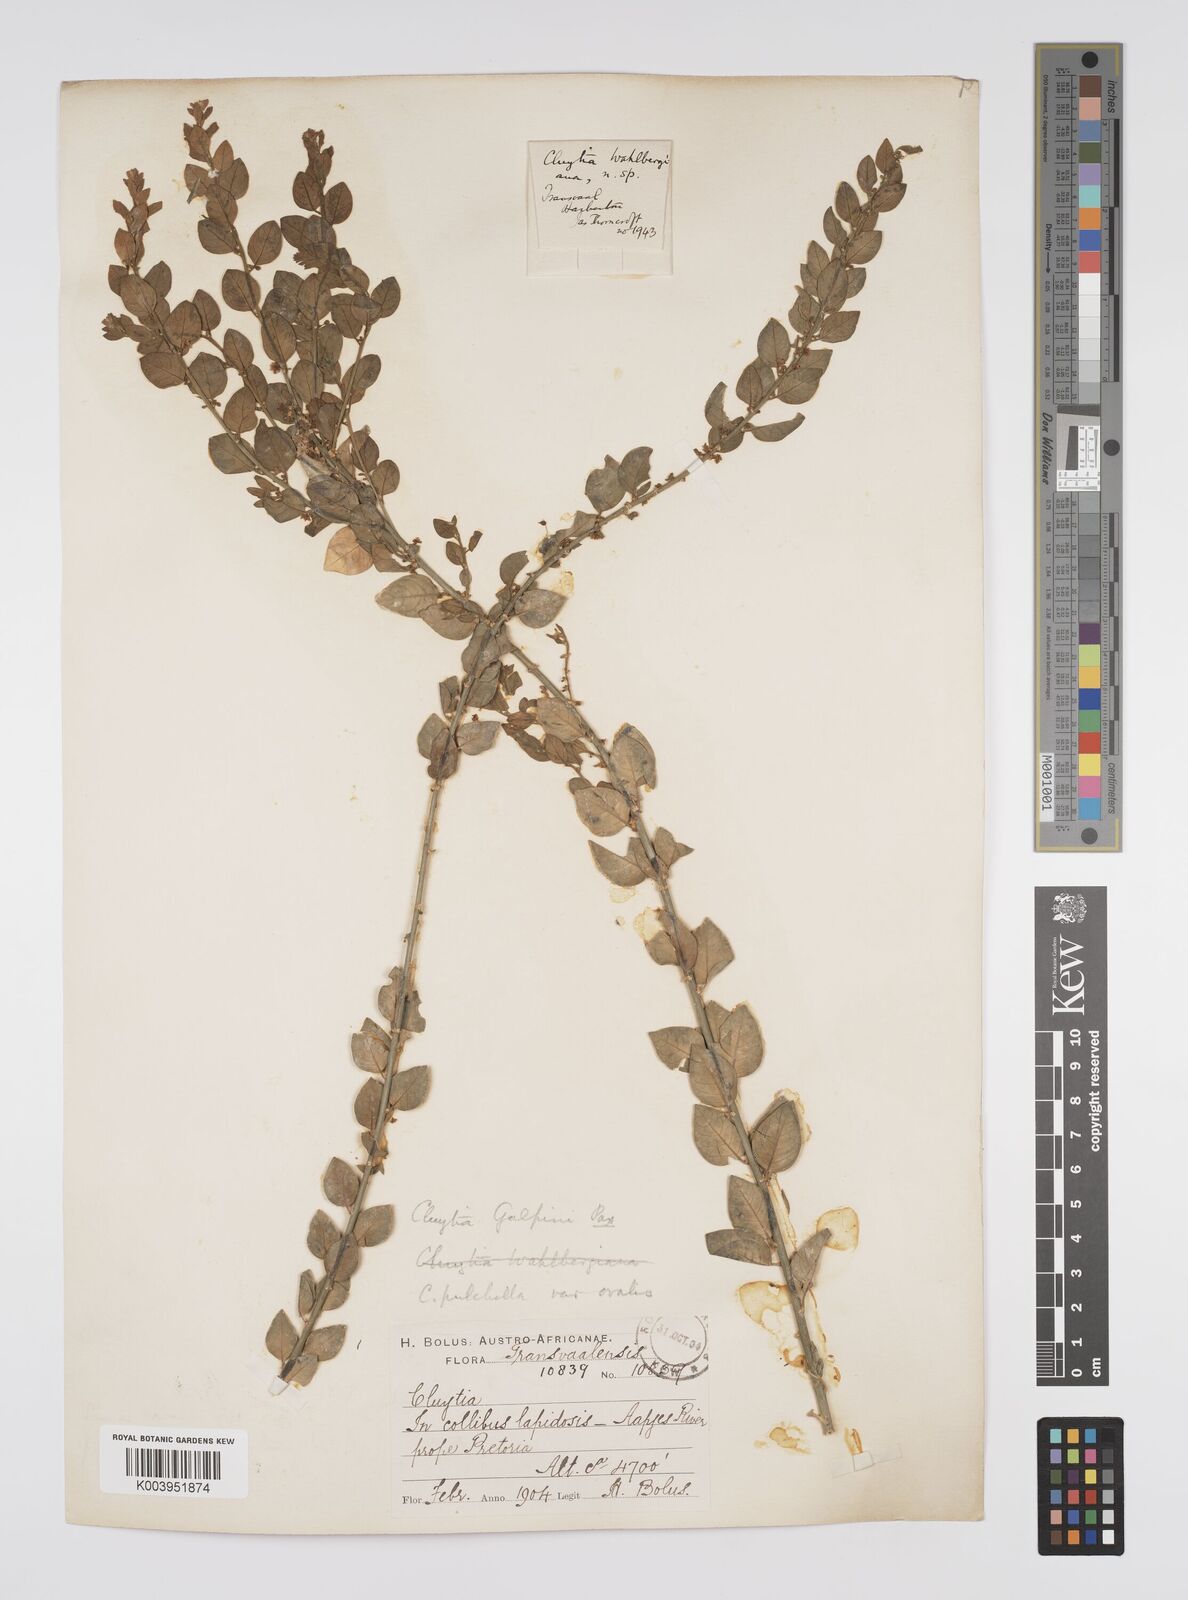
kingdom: Plantae
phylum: Tracheophyta
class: Magnoliopsida
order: Malpighiales
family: Peraceae
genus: Clutia
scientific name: Clutia galpinii
